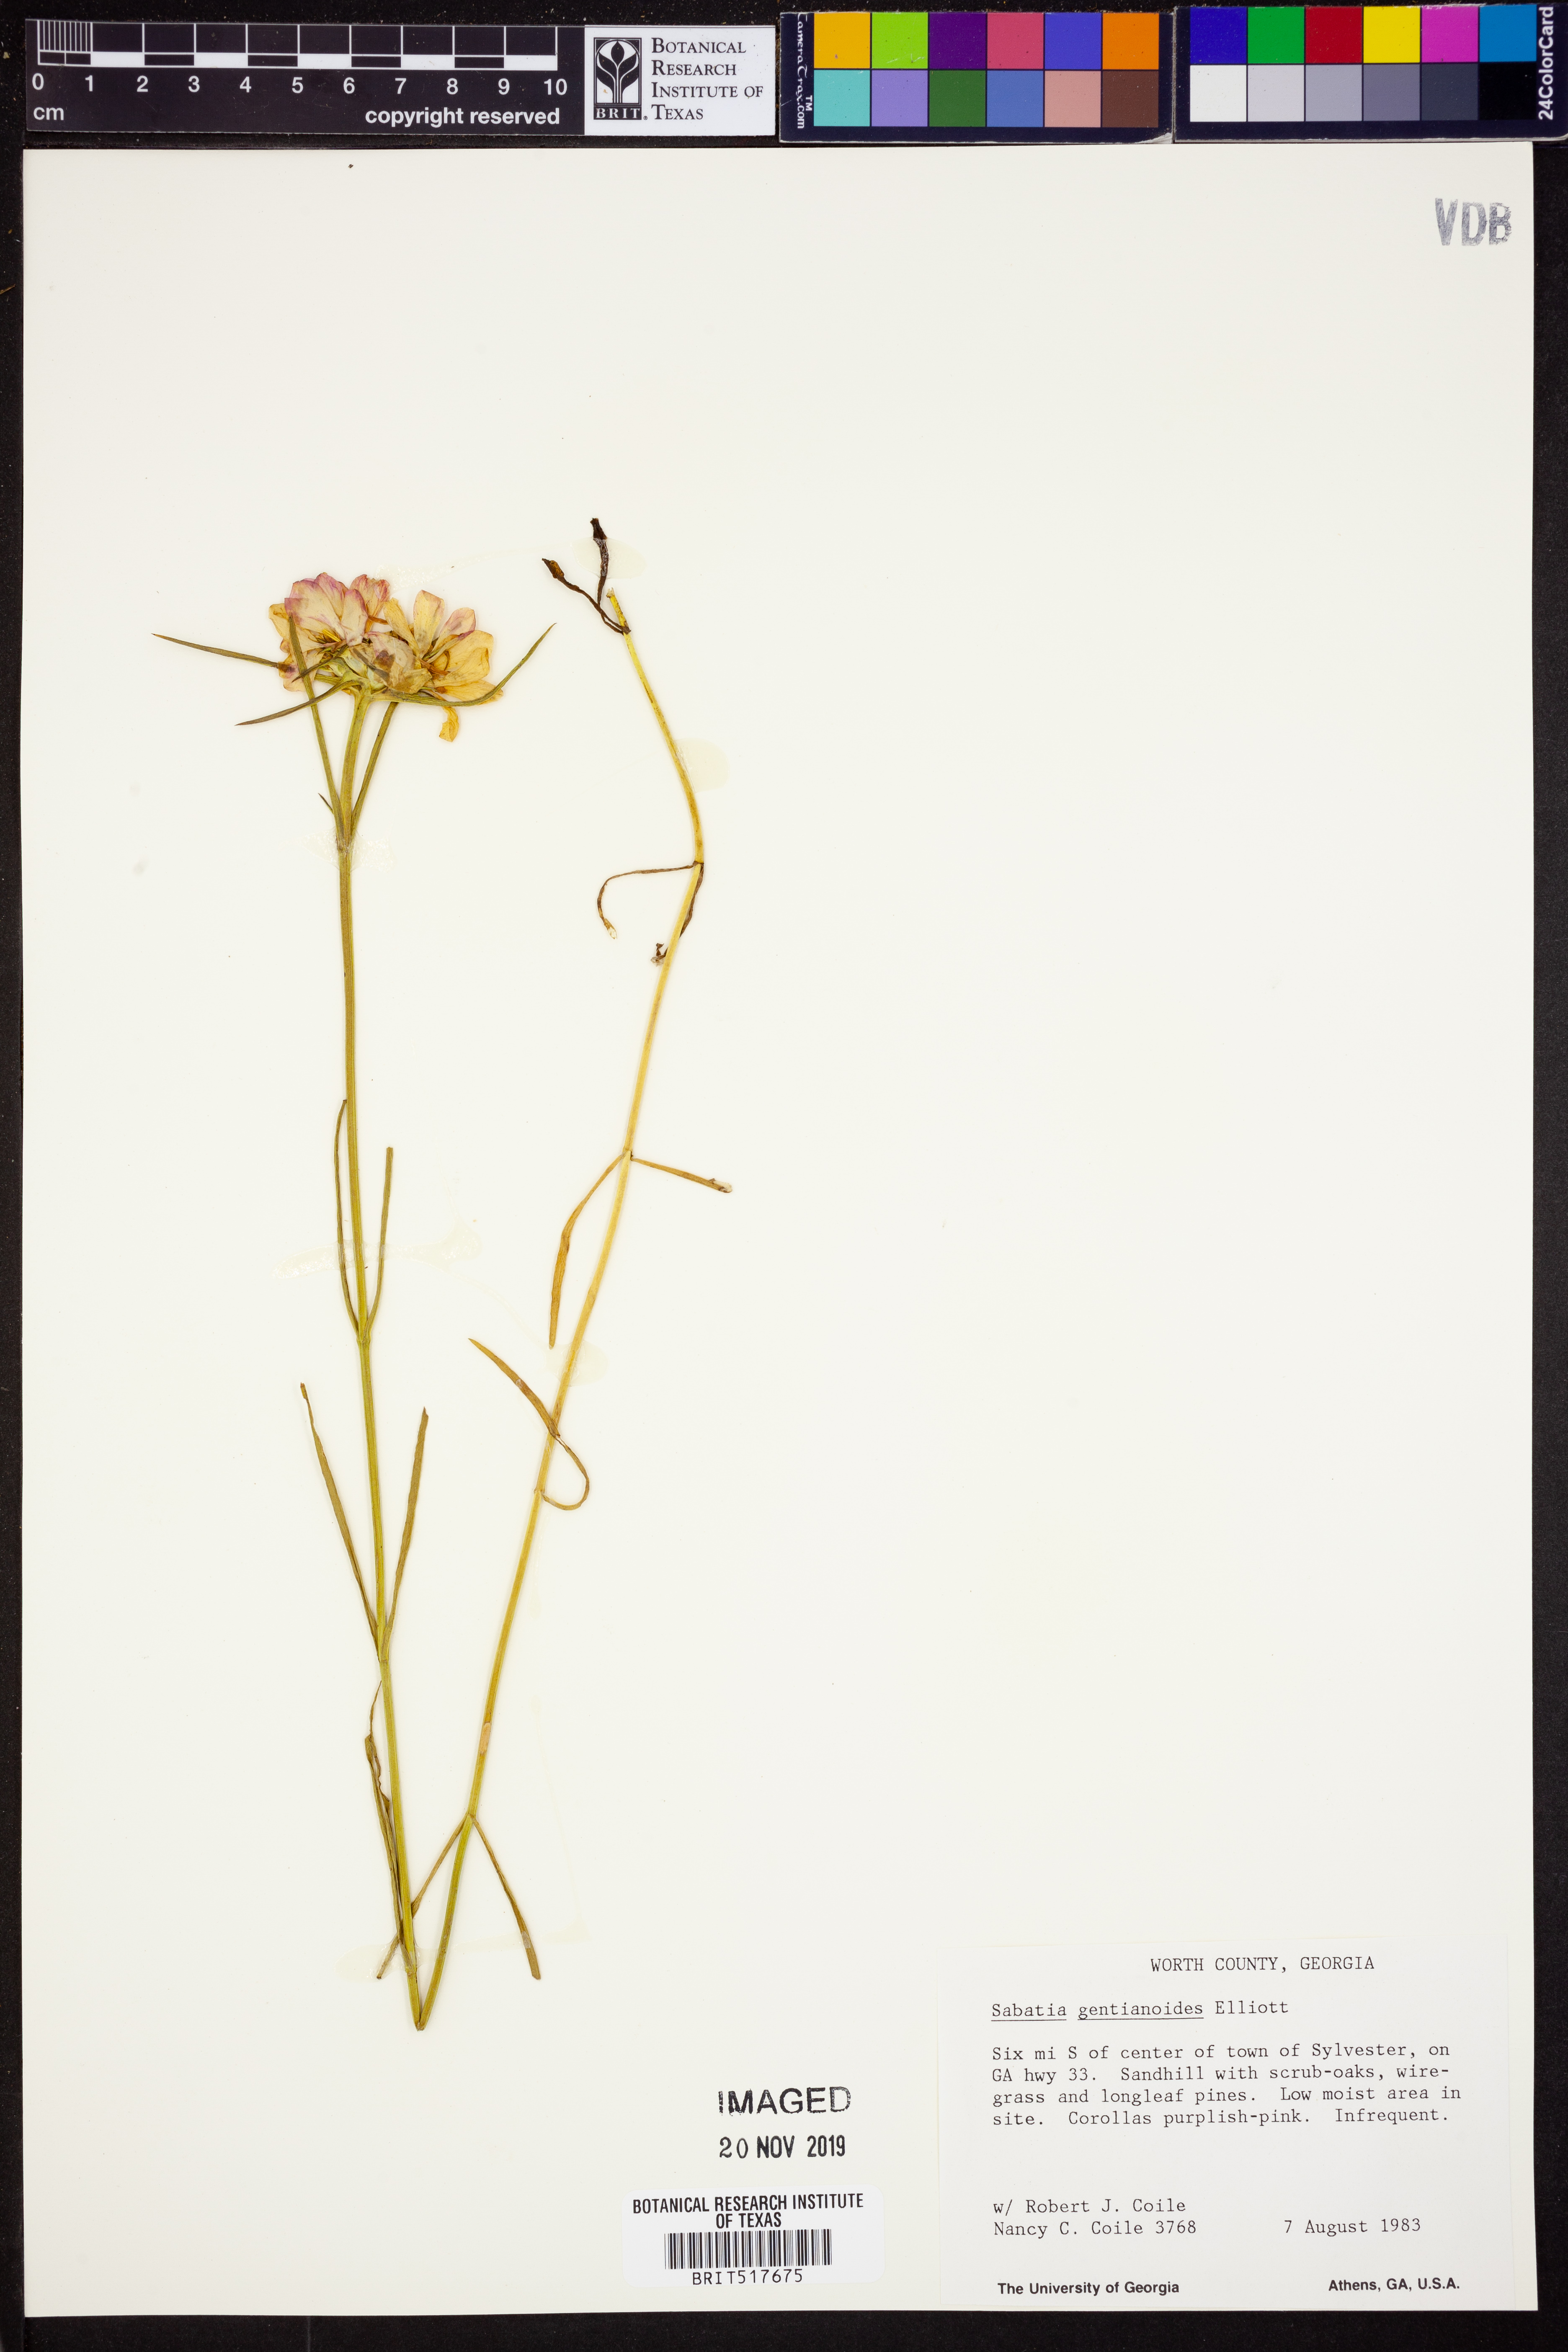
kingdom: Plantae
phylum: Tracheophyta
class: Magnoliopsida
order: Gentianales
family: Gentianaceae
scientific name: Gentianaceae
